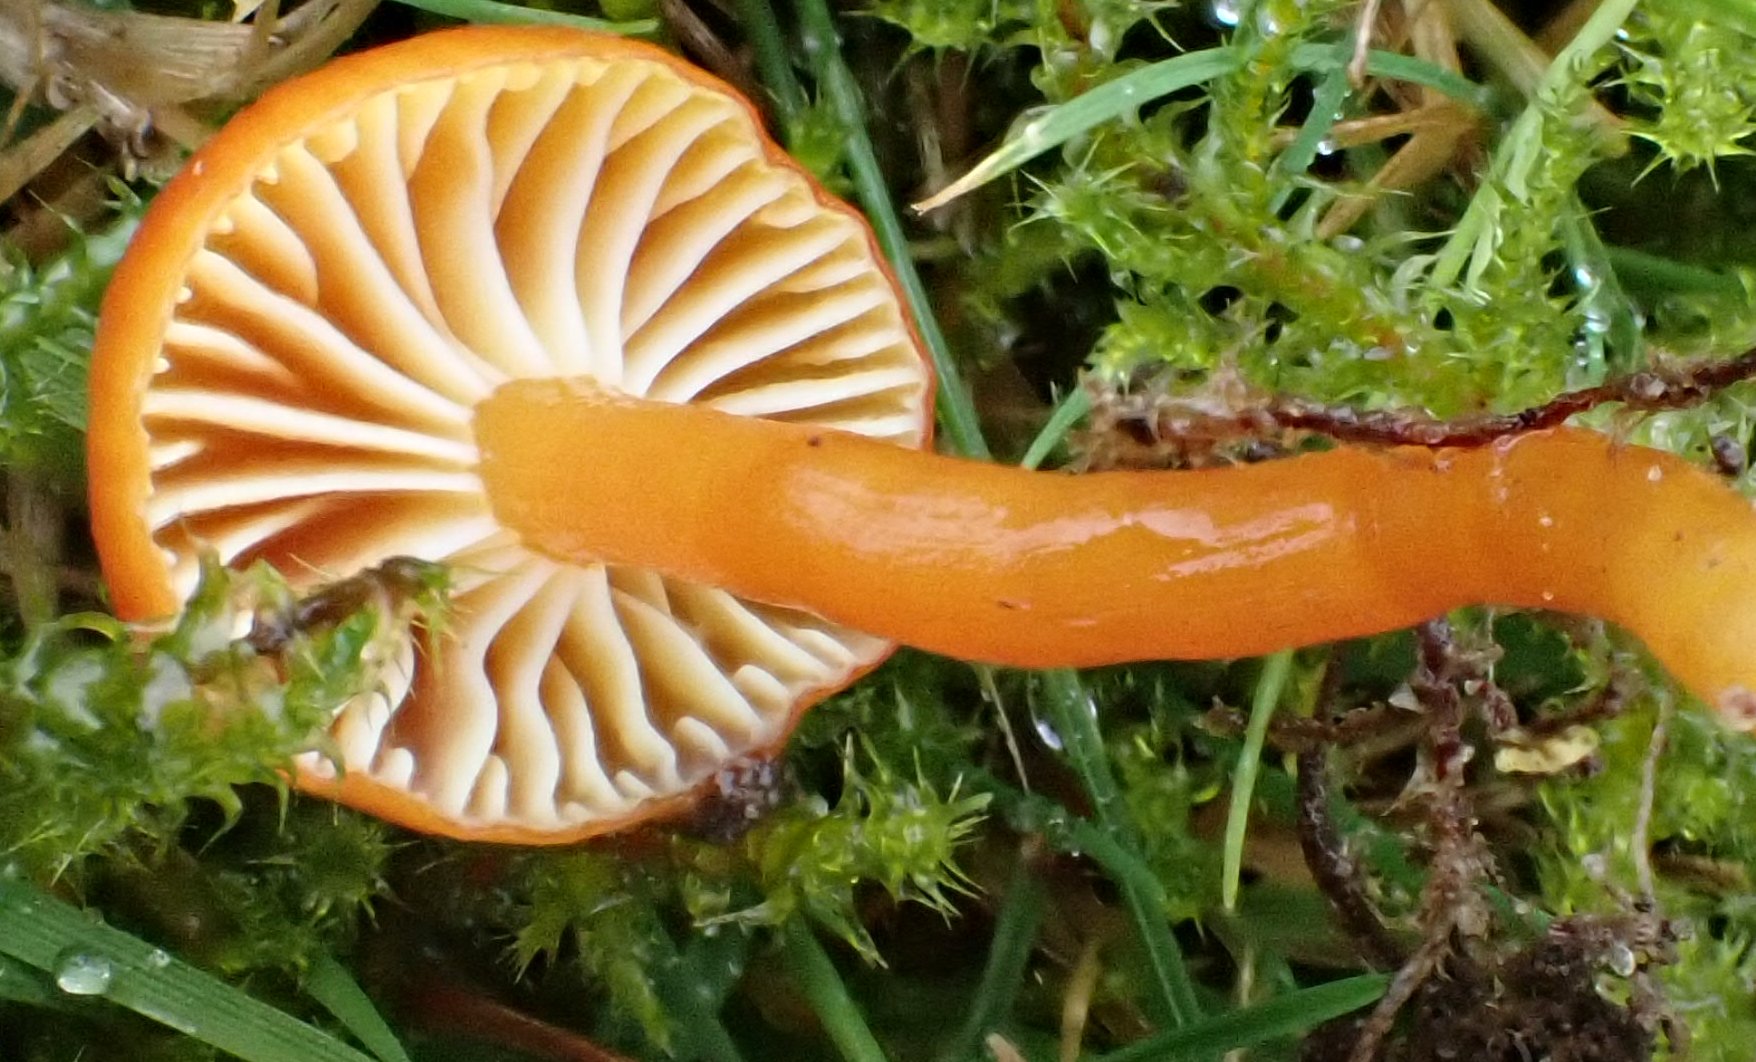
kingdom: Fungi
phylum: Basidiomycota
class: Agaricomycetes
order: Agaricales
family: Hygrophoraceae
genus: Hygrocybe
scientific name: Hygrocybe ceracea
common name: voksgul vokshat
